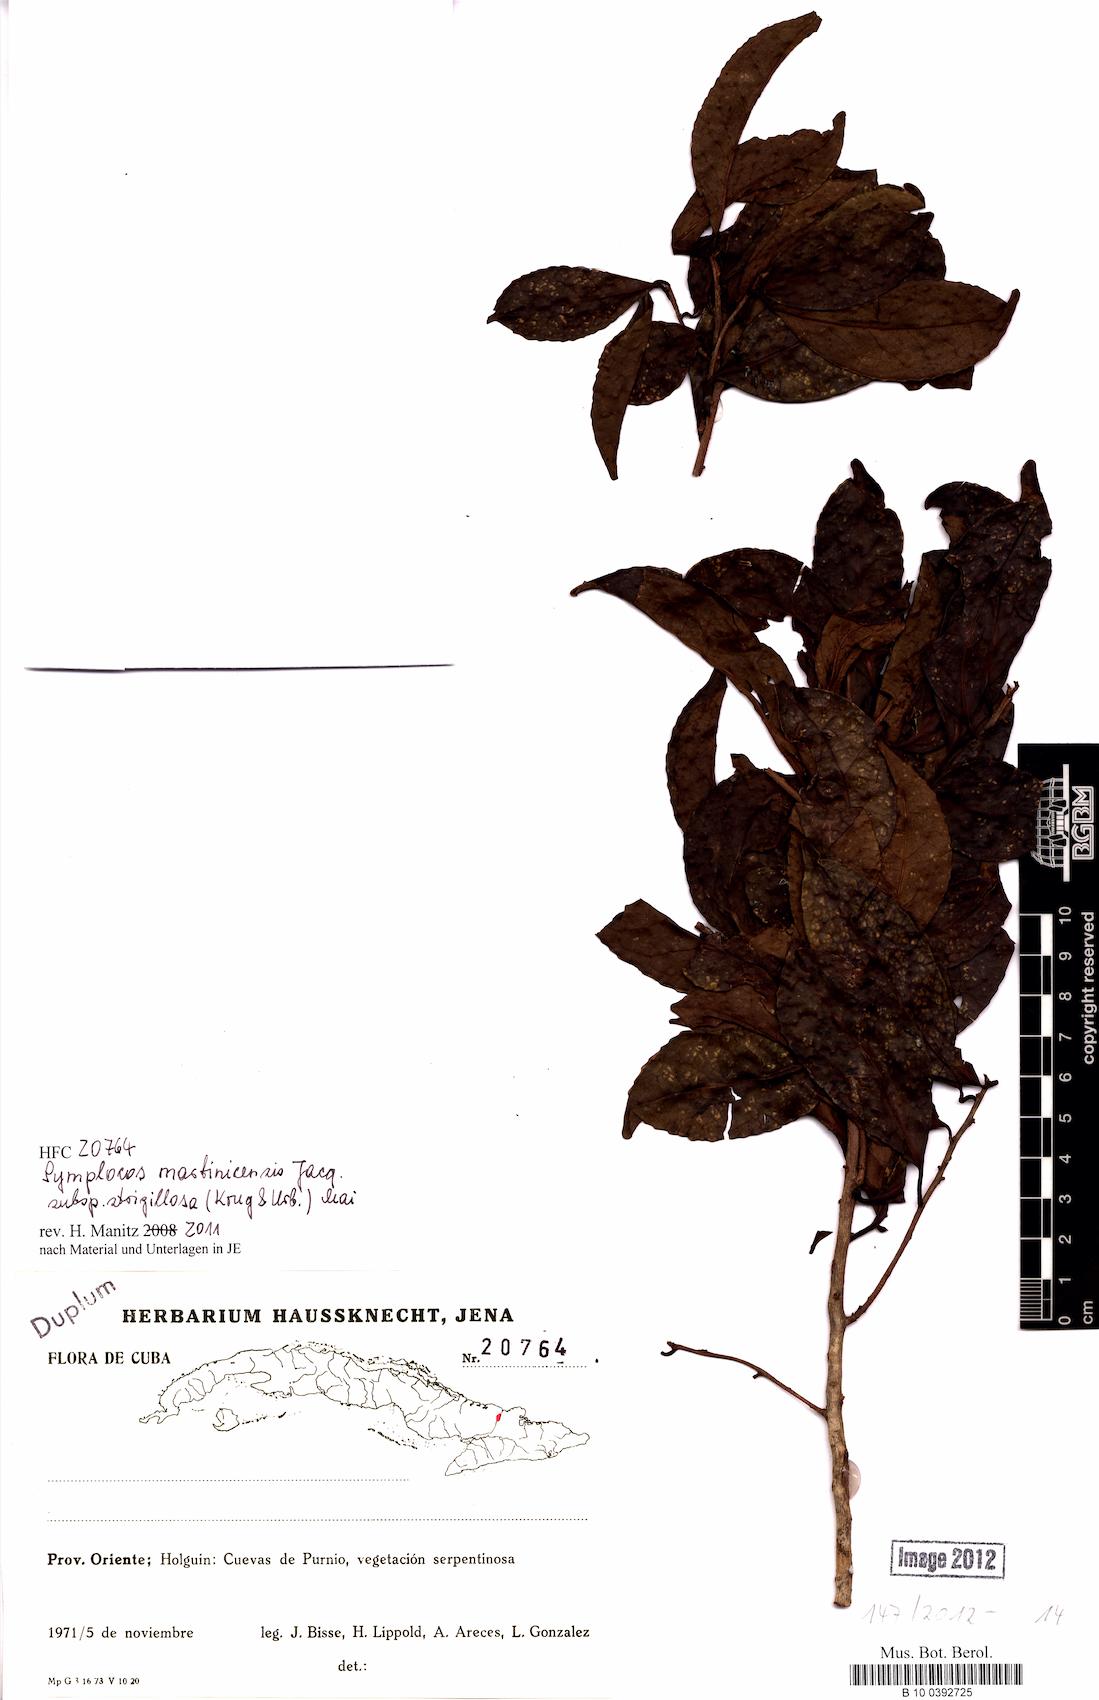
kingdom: Plantae
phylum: Tracheophyta
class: Magnoliopsida
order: Ericales
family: Symplocaceae
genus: Symplocos
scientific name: Symplocos jurgensenii
